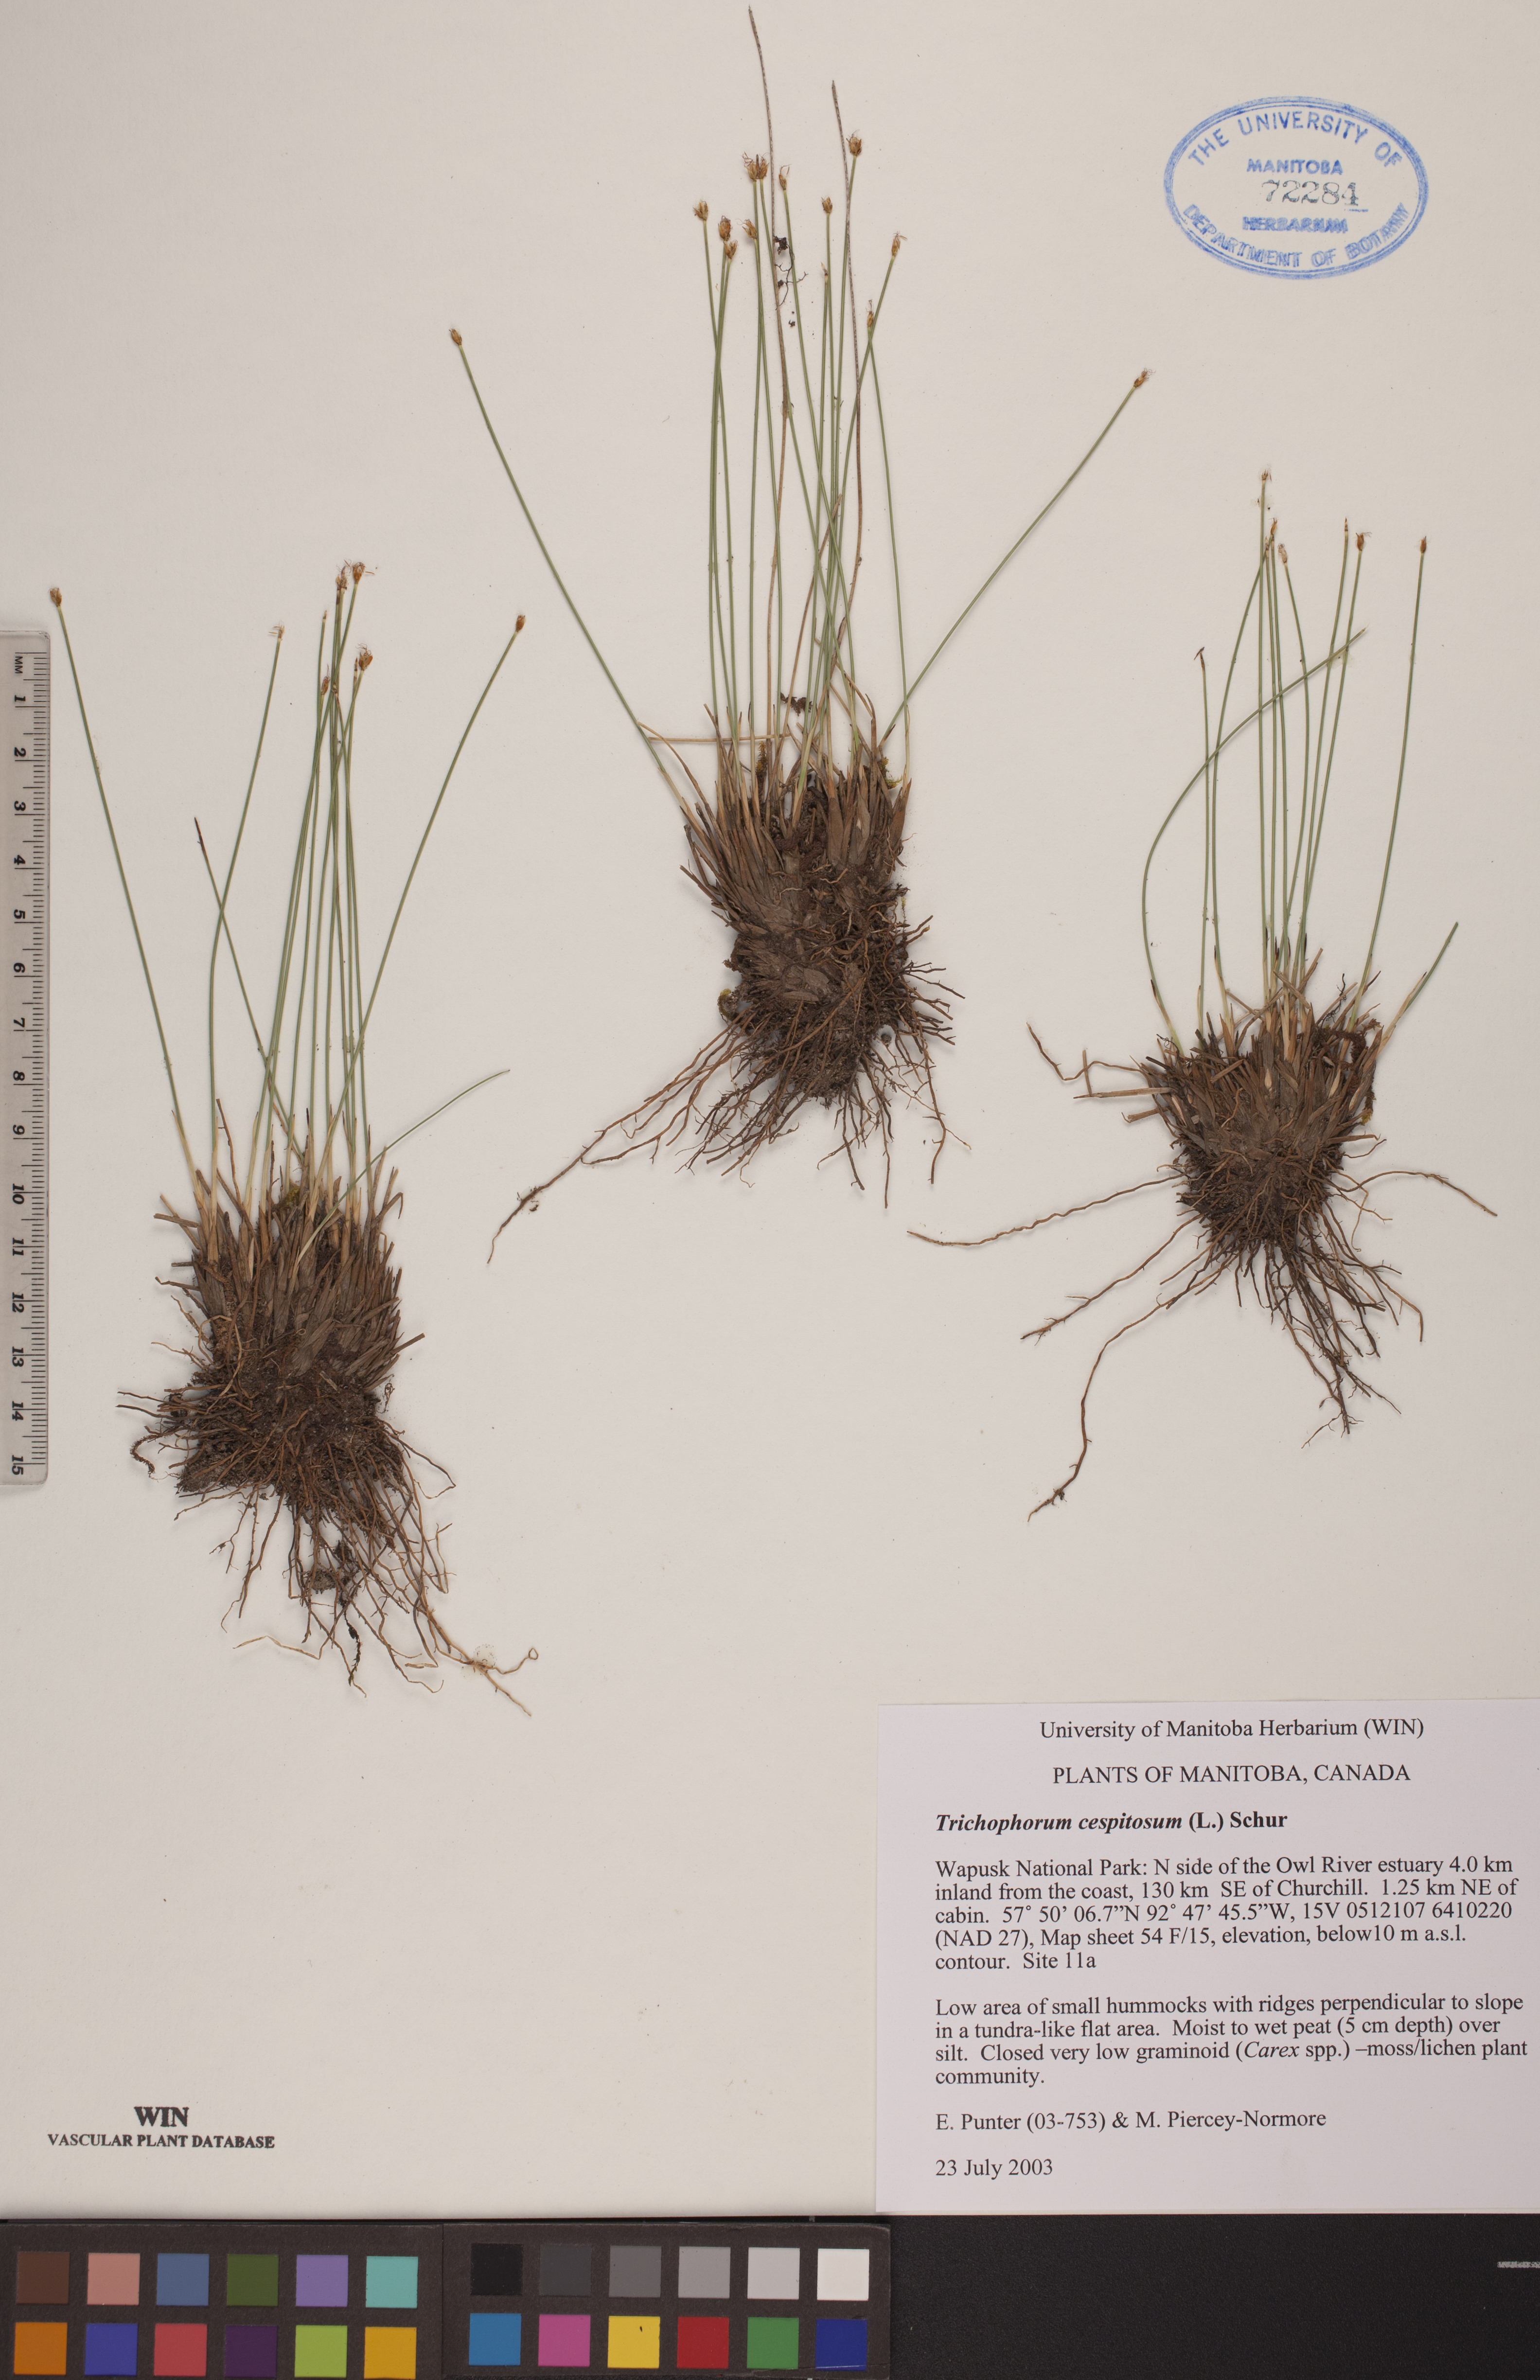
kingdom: Plantae
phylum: Tracheophyta
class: Liliopsida
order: Poales
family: Cyperaceae
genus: Trichophorum
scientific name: Trichophorum cespitosum
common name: Cespitose bulrush
